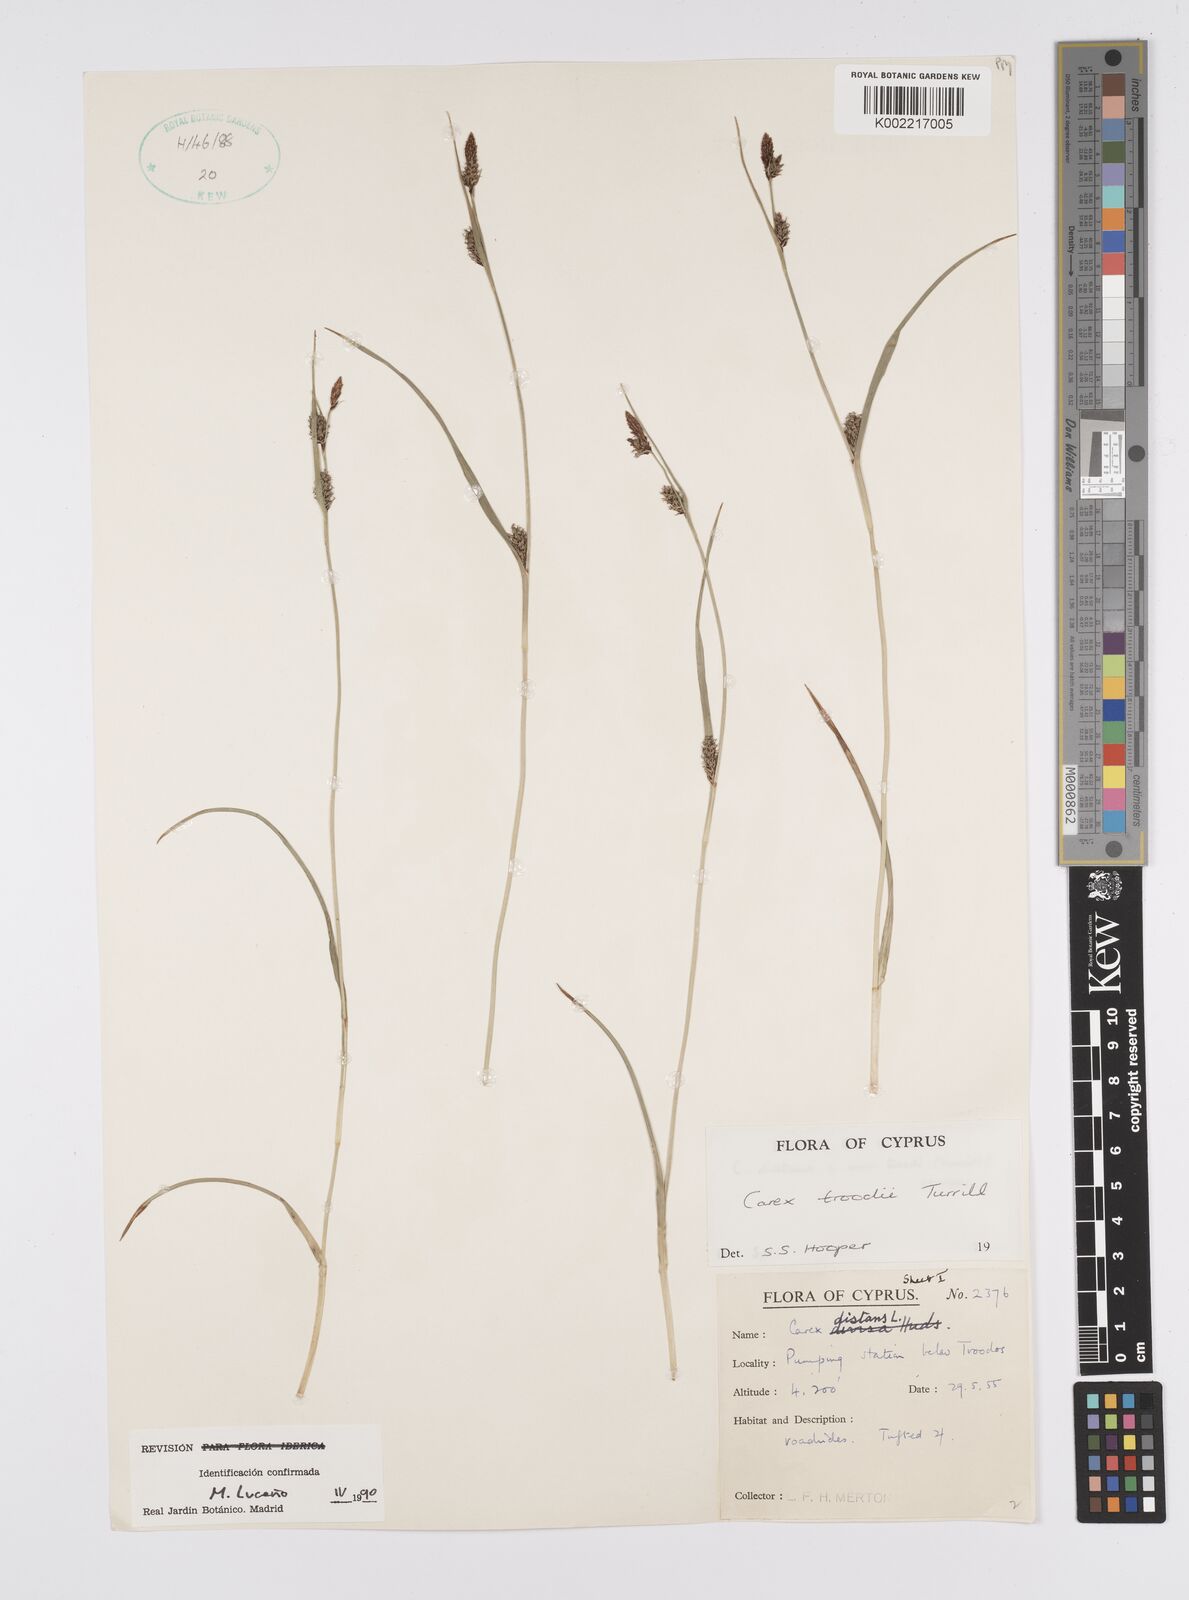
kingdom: Plantae
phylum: Tracheophyta
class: Liliopsida
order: Poales
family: Cyperaceae
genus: Carex
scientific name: Carex troodi
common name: Troodos mount sedge
